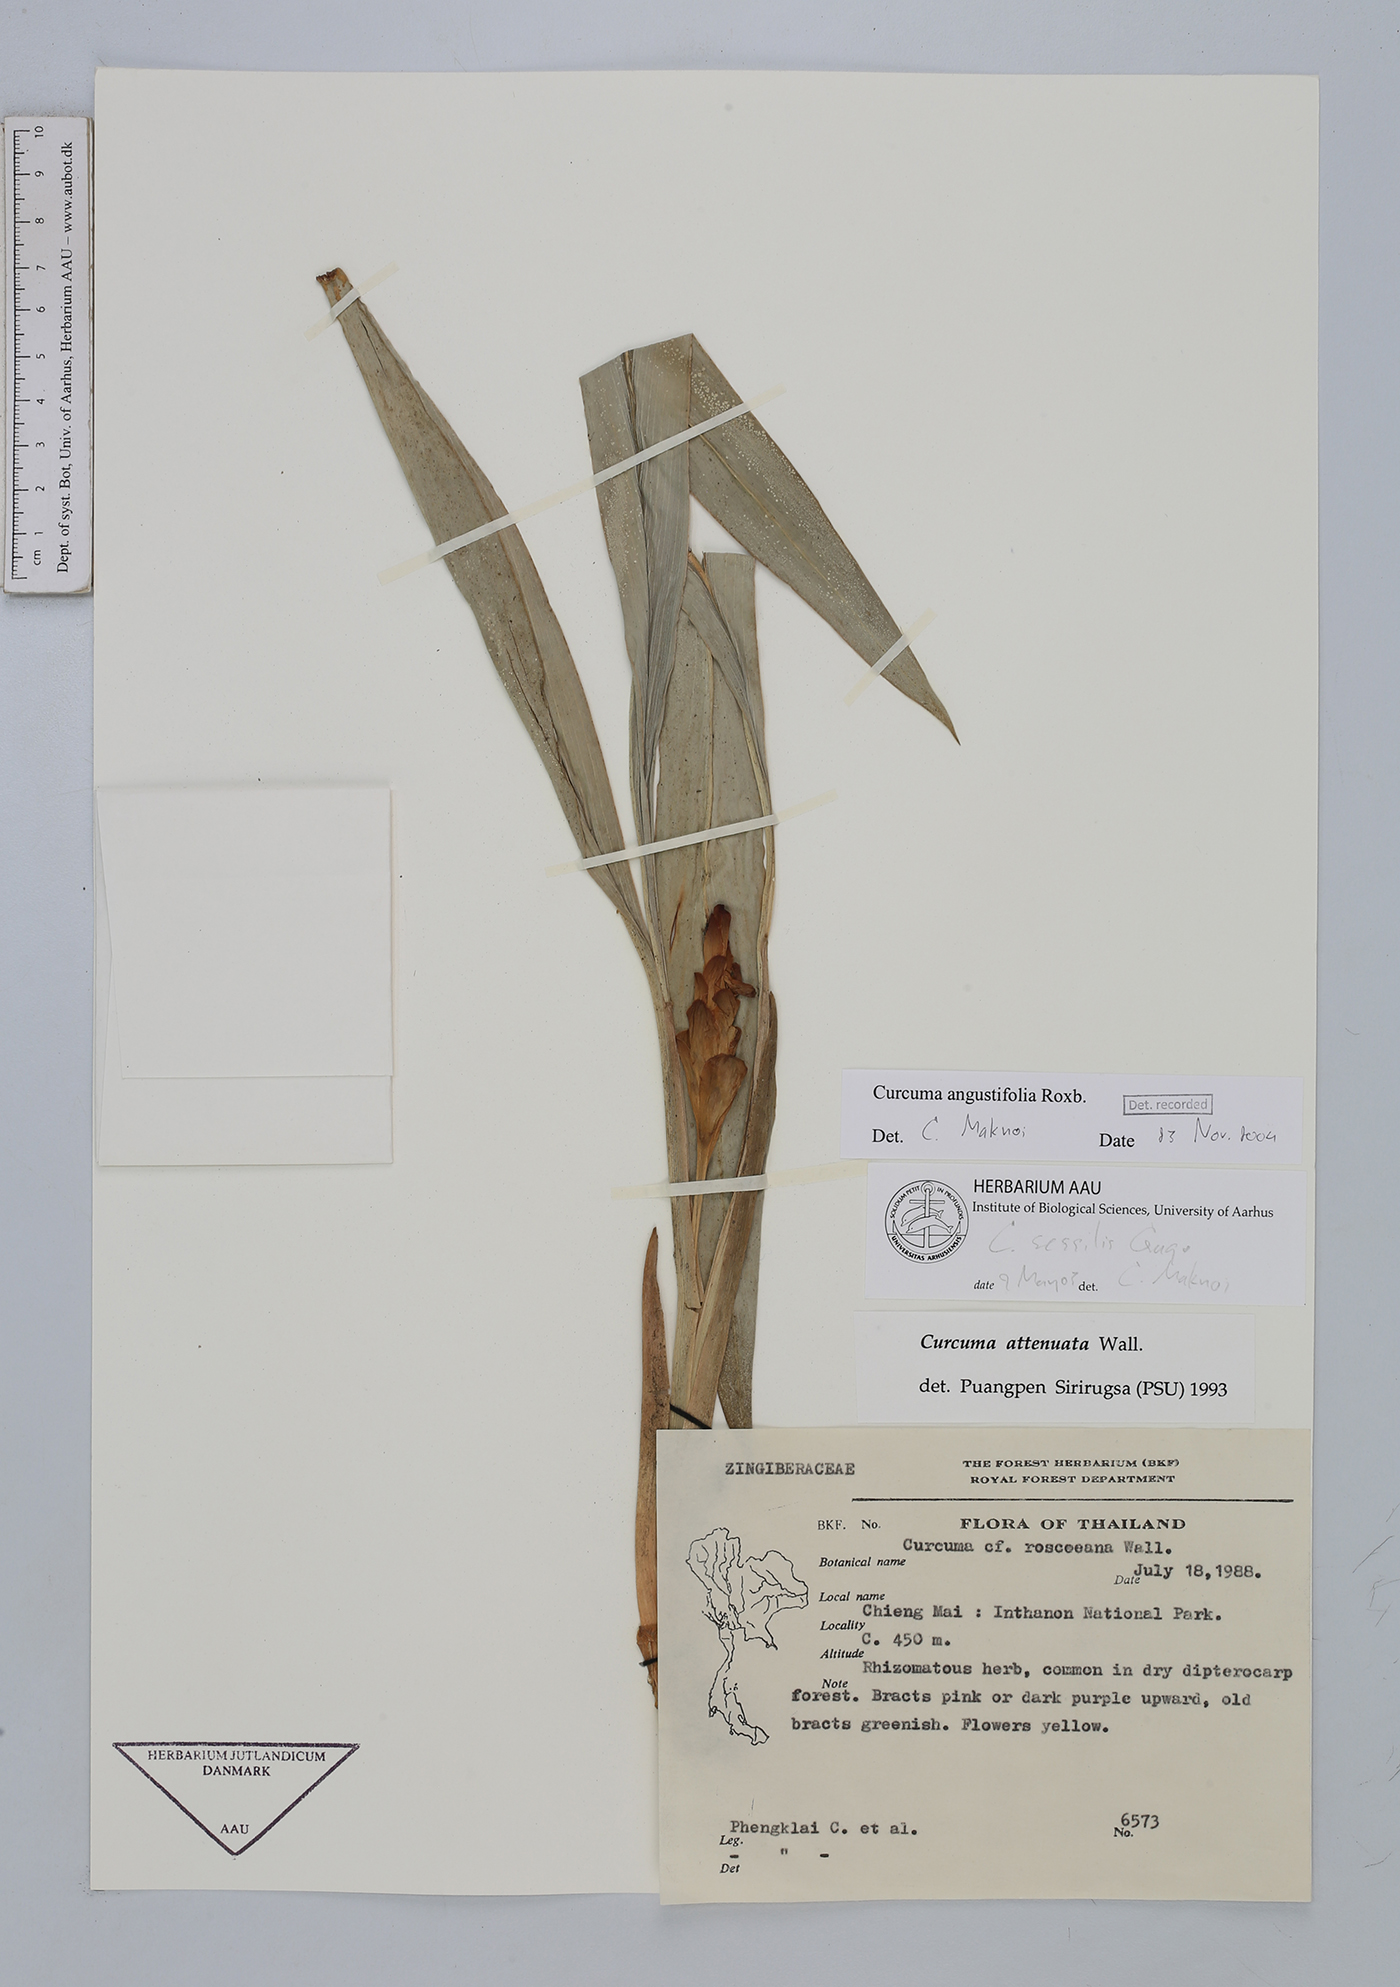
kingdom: Plantae
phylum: Tracheophyta
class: Liliopsida
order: Zingiberales
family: Zingiberaceae
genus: Curcuma
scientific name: Curcuma angustifolia
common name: East indian arrowroot
